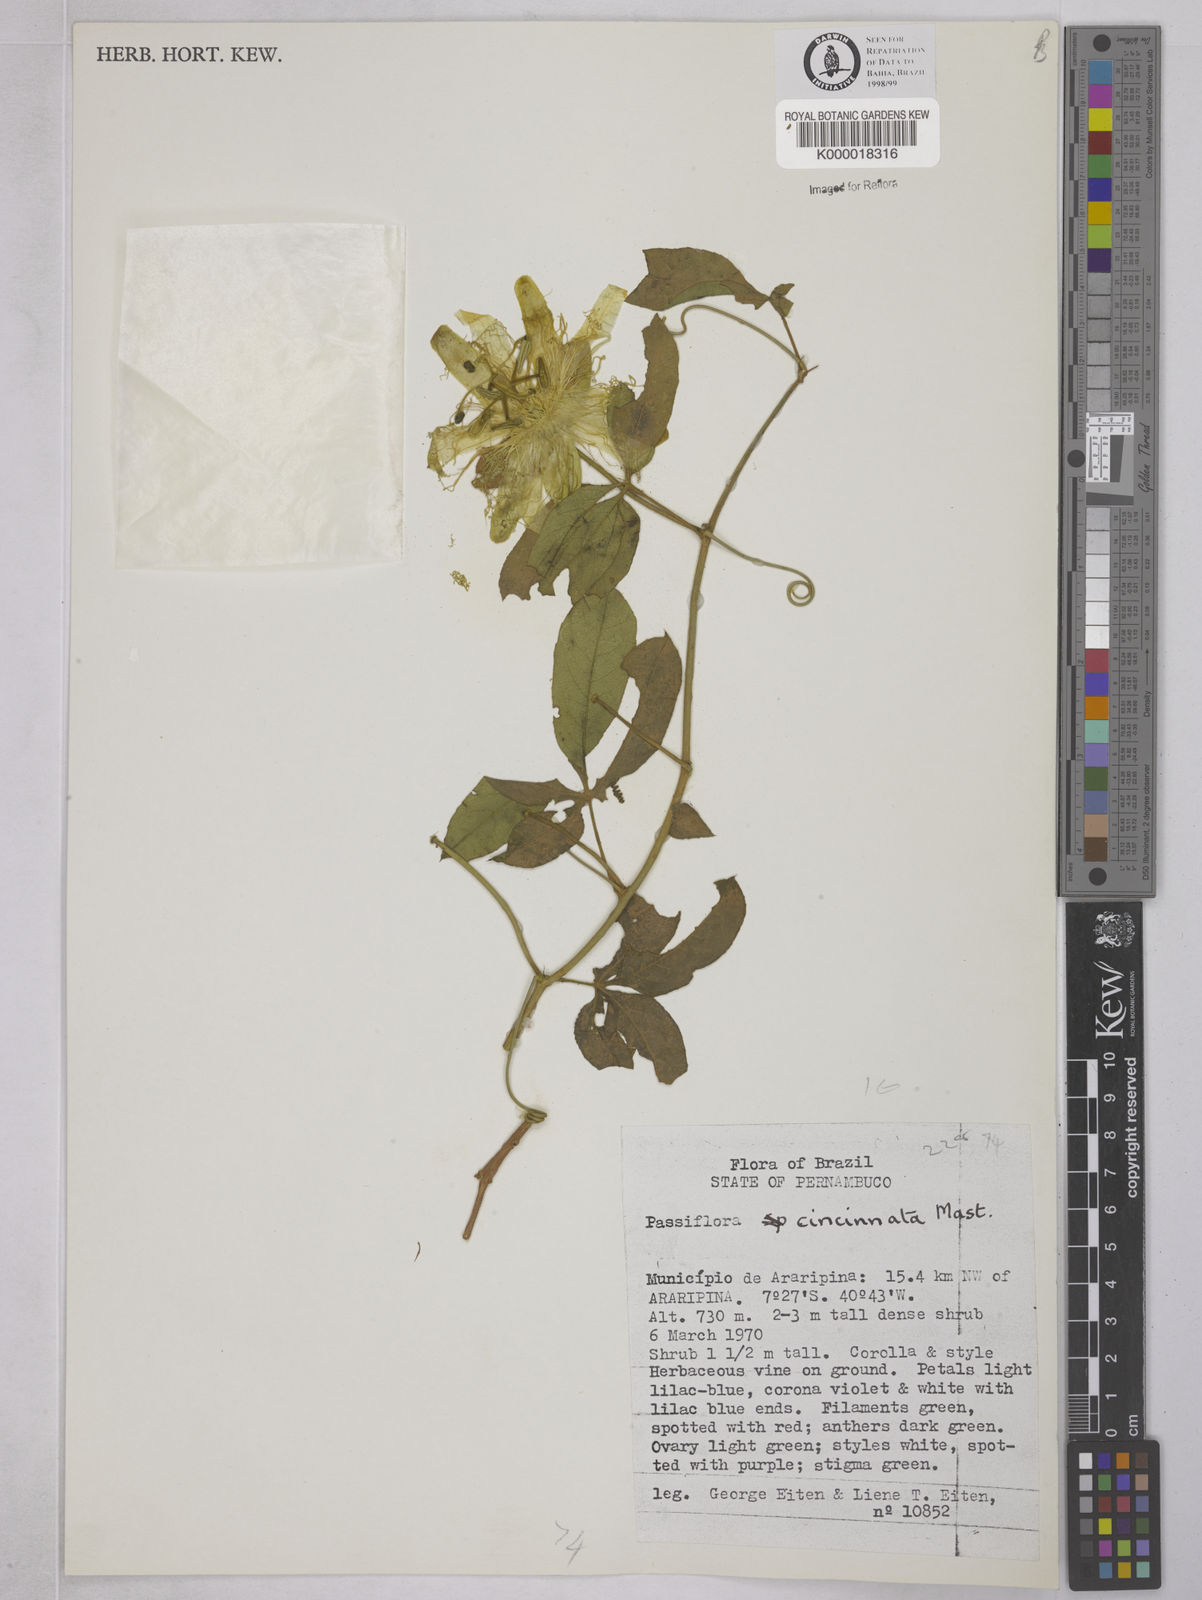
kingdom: Plantae
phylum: Tracheophyta
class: Magnoliopsida
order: Malpighiales
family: Passifloraceae
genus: Passiflora
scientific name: Passiflora cincinnata
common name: Crato passionvine
